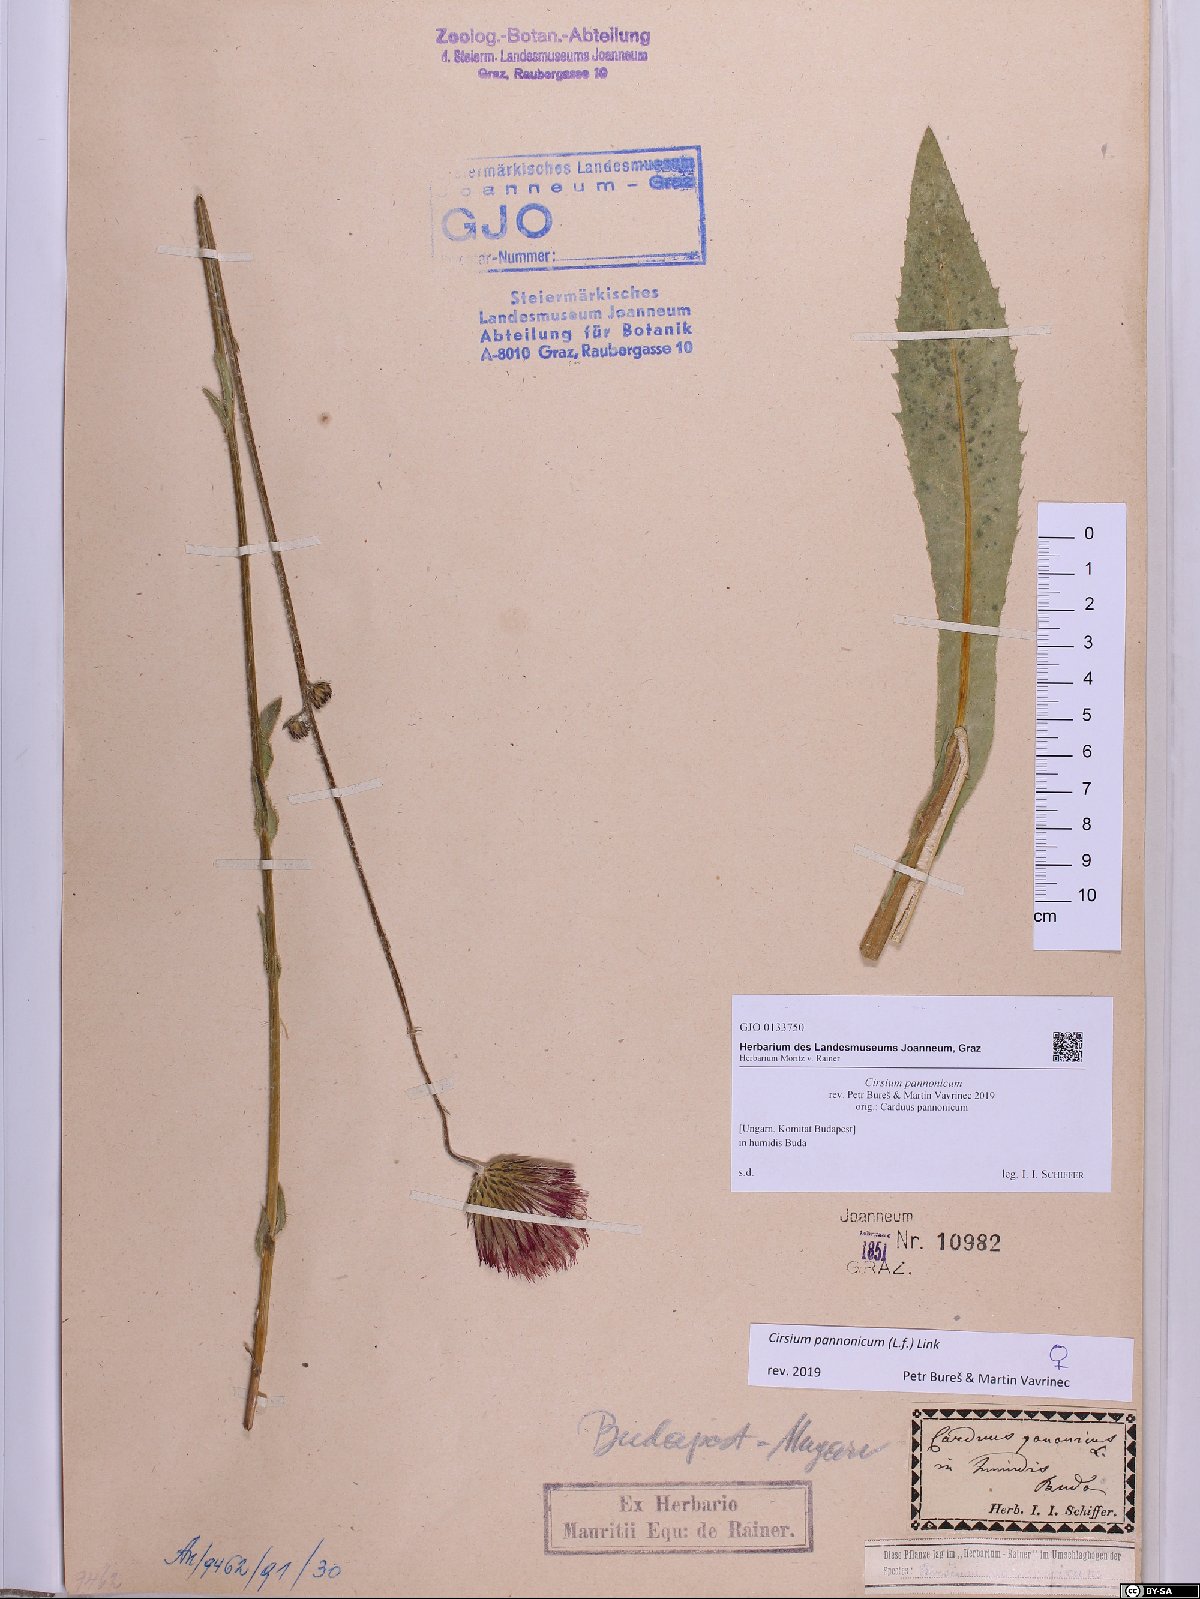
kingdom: Plantae
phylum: Tracheophyta
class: Magnoliopsida
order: Asterales
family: Asteraceae
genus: Cirsium
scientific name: Cirsium pannonicum
